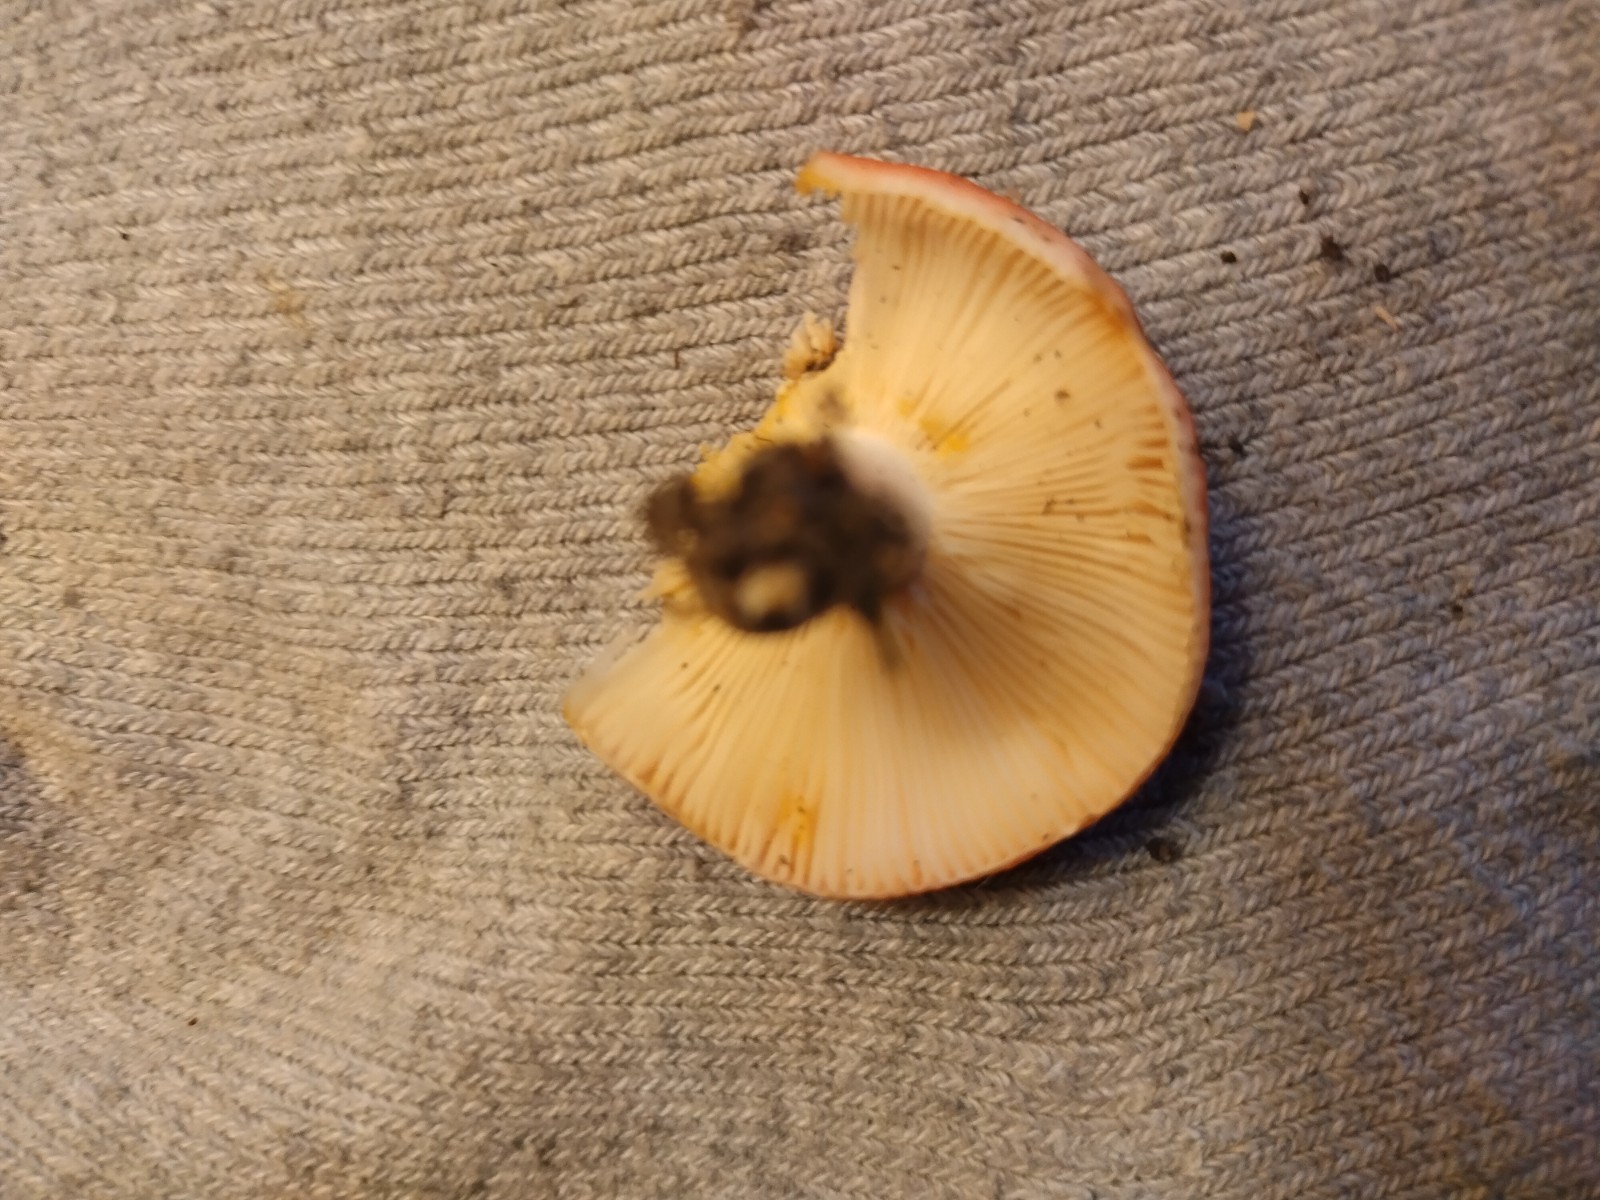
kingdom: Fungi
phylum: Basidiomycota
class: Agaricomycetes
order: Russulales
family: Russulaceae
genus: Russula
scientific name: Russula luteotacta
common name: gulplettet gift-skørhat
